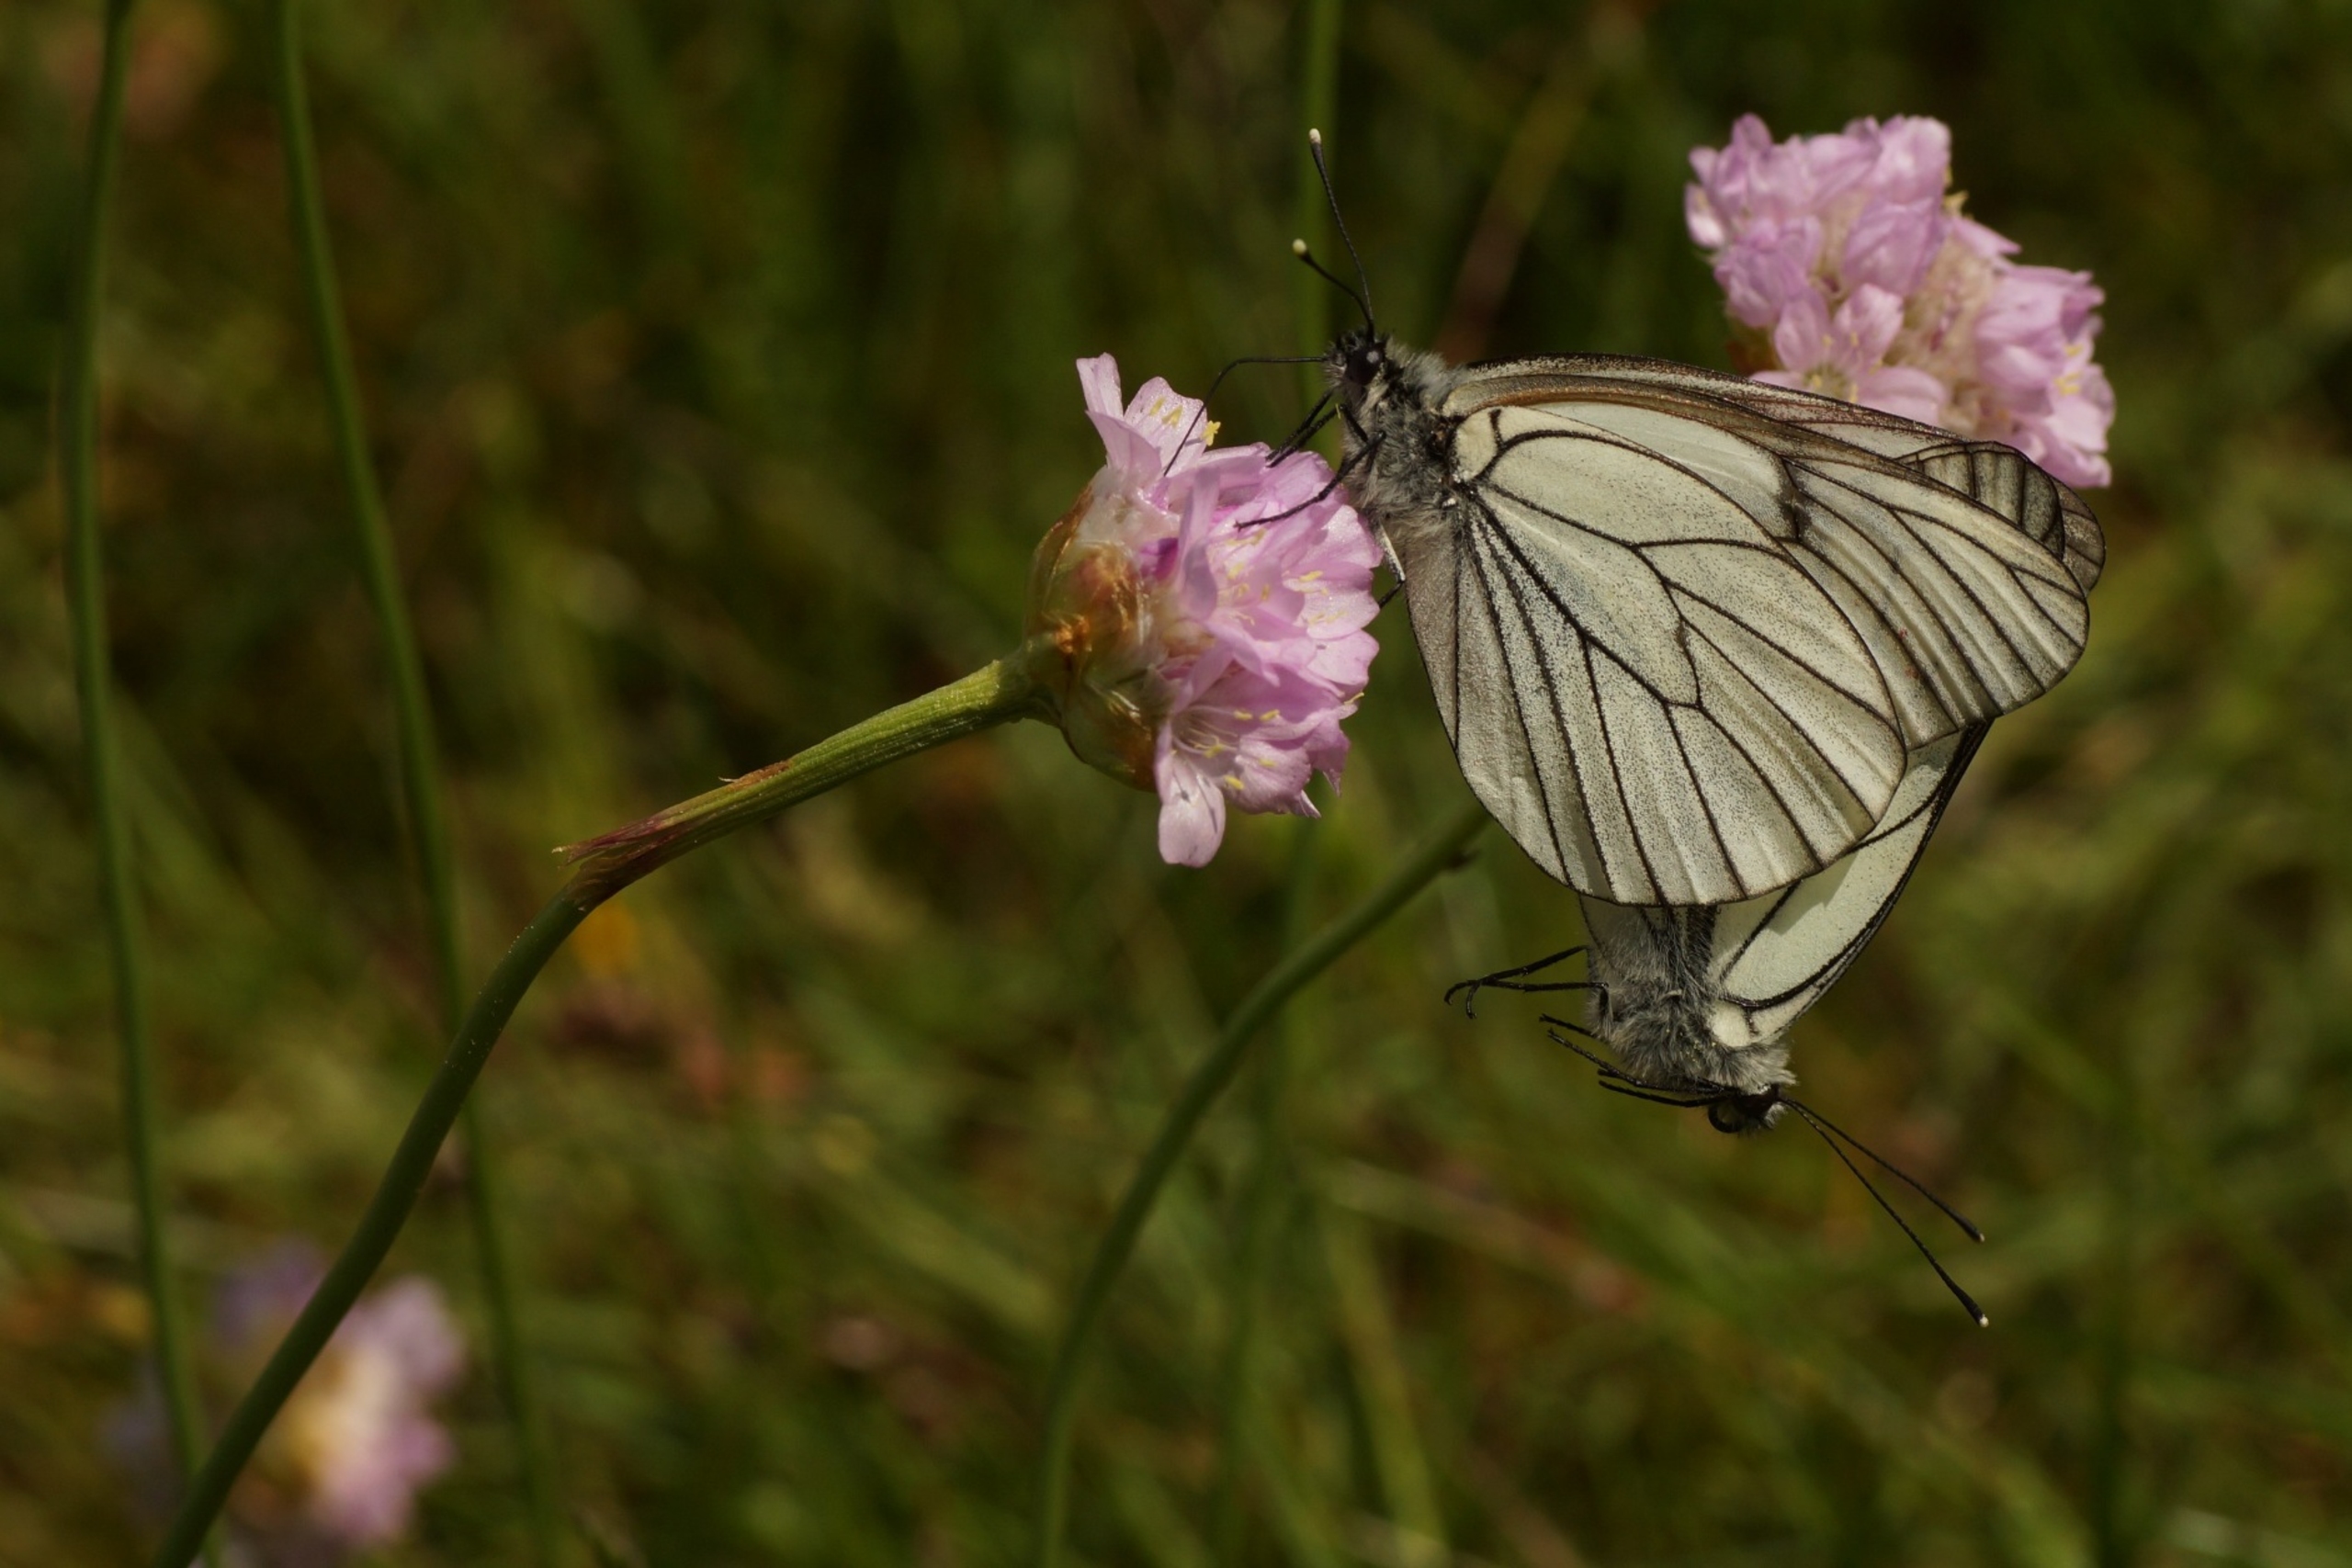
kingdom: Animalia
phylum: Arthropoda
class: Insecta
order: Lepidoptera
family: Pieridae
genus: Aporia
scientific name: Aporia crataegi
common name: Sortåret hvidvinge
